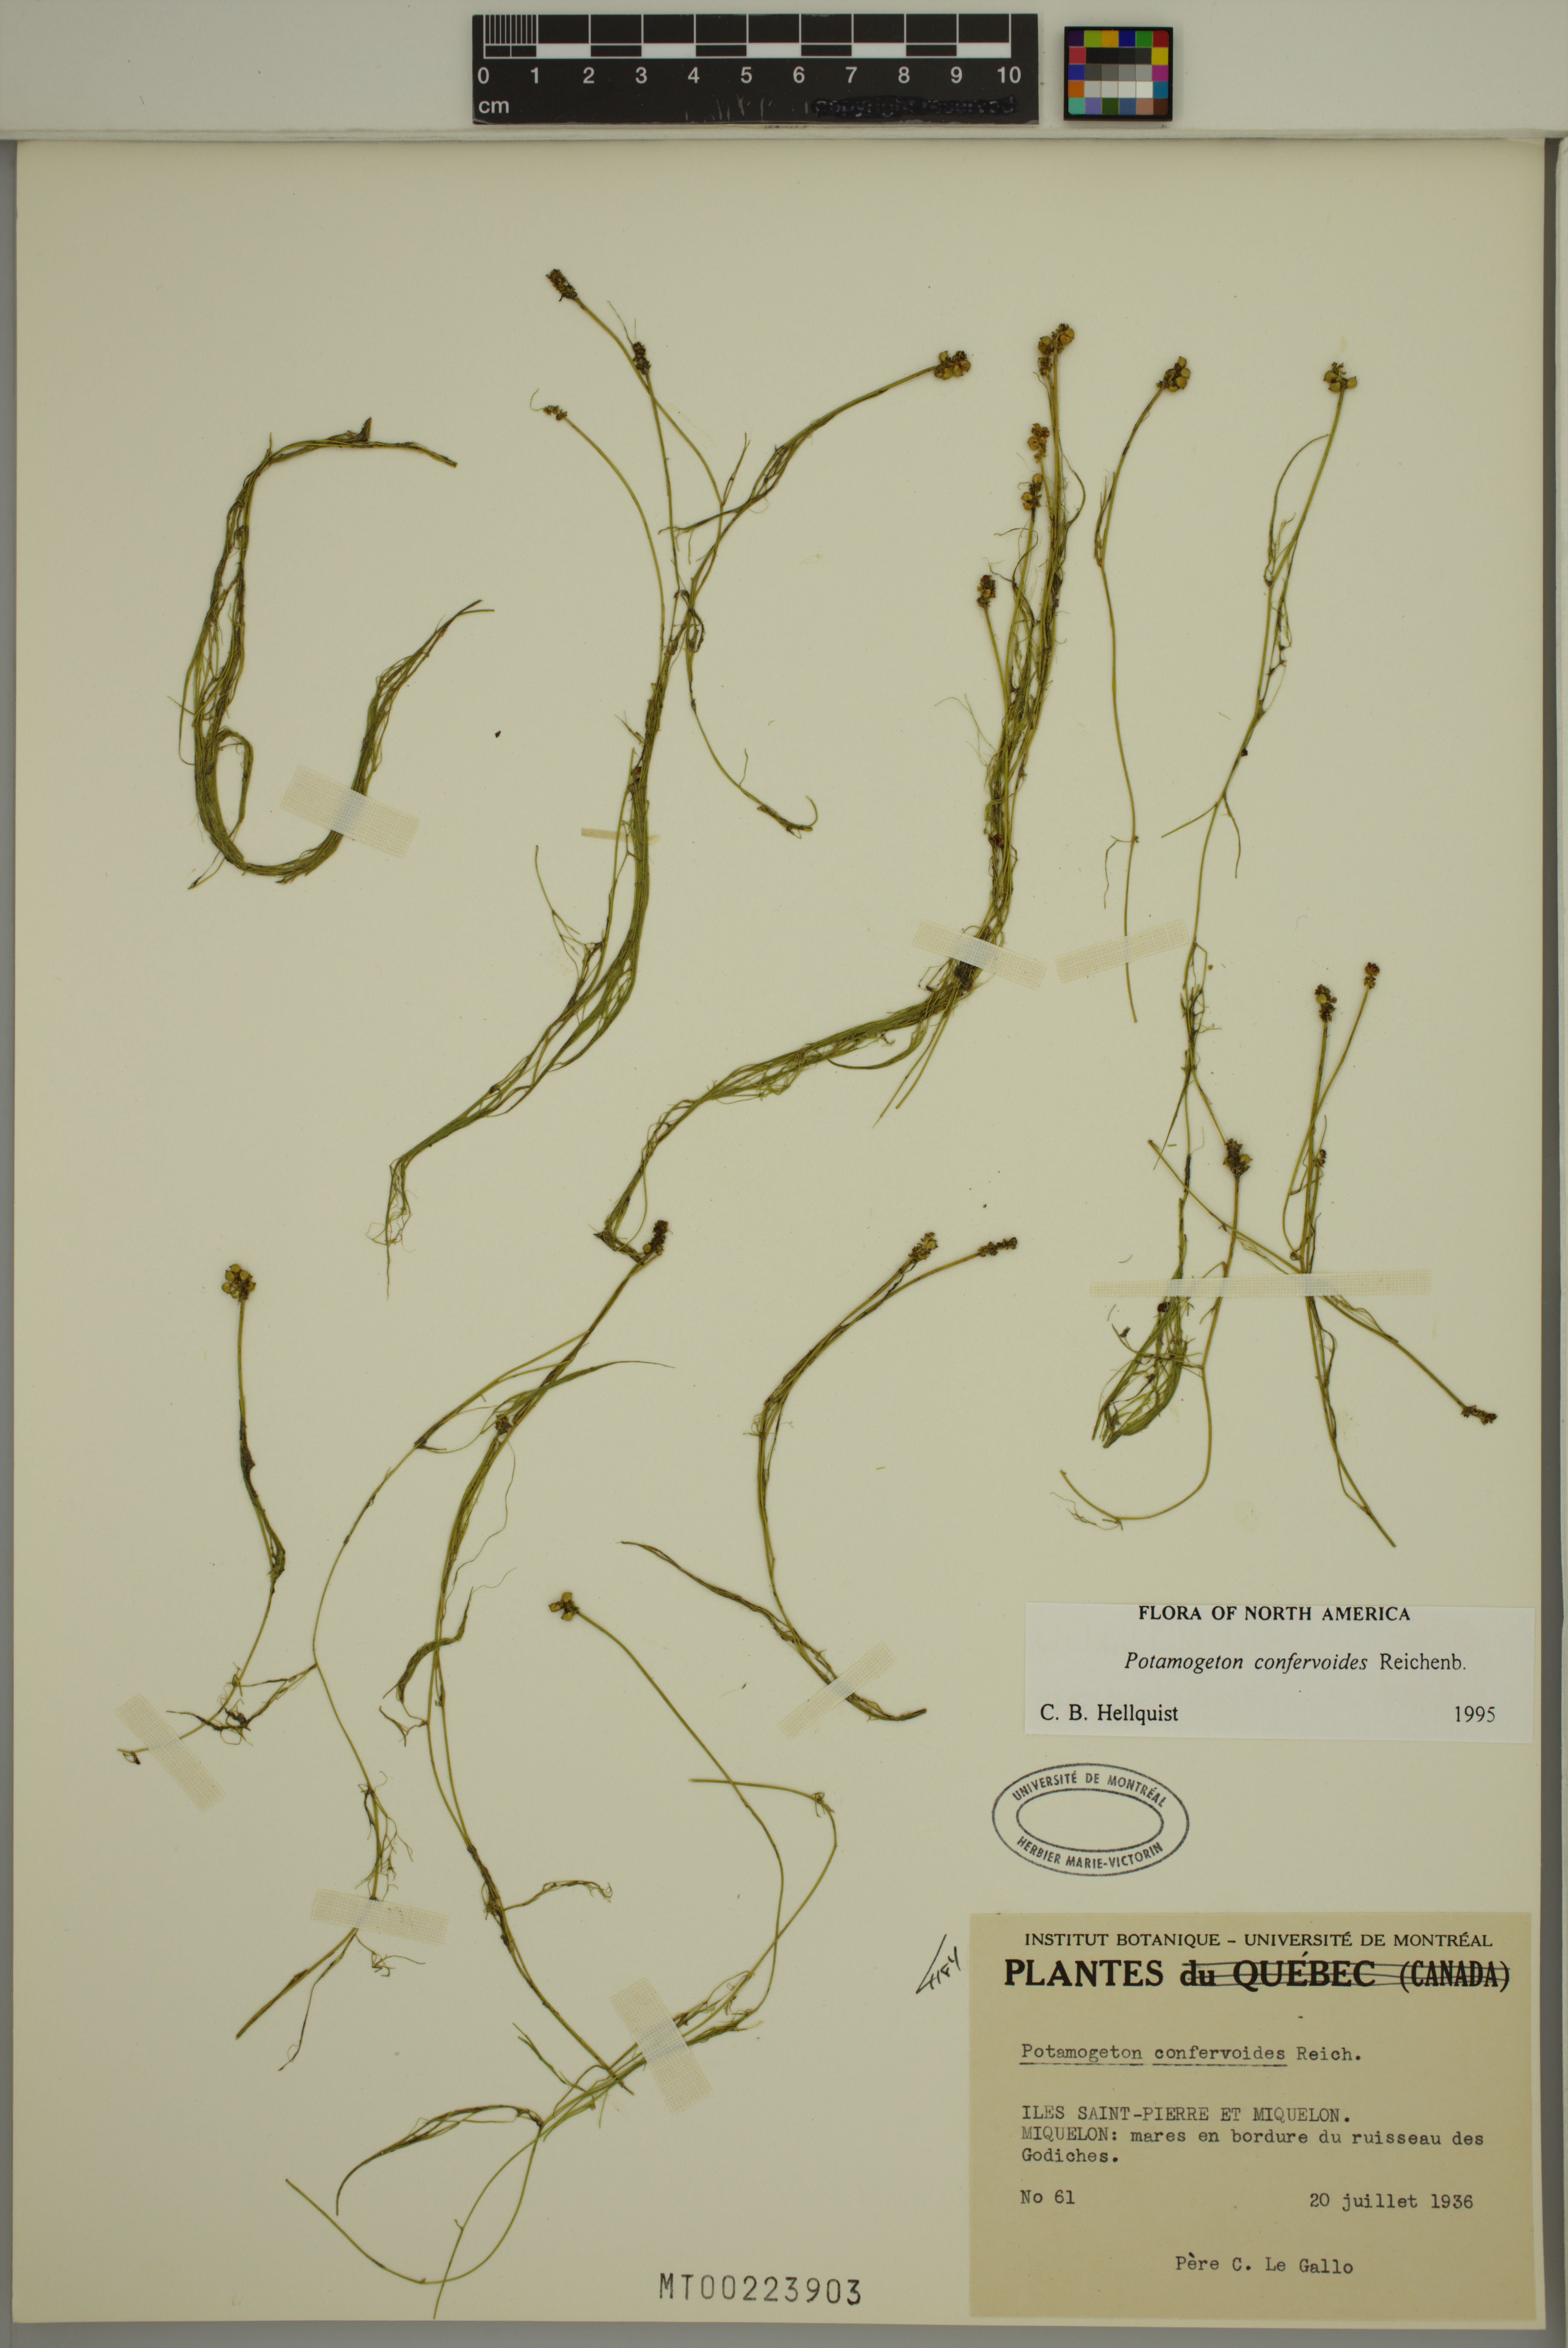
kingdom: Plantae
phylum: Tracheophyta
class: Liliopsida
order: Alismatales
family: Potamogetonaceae
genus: Potamogeton
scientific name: Potamogeton confervoides
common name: Alga pondweed
